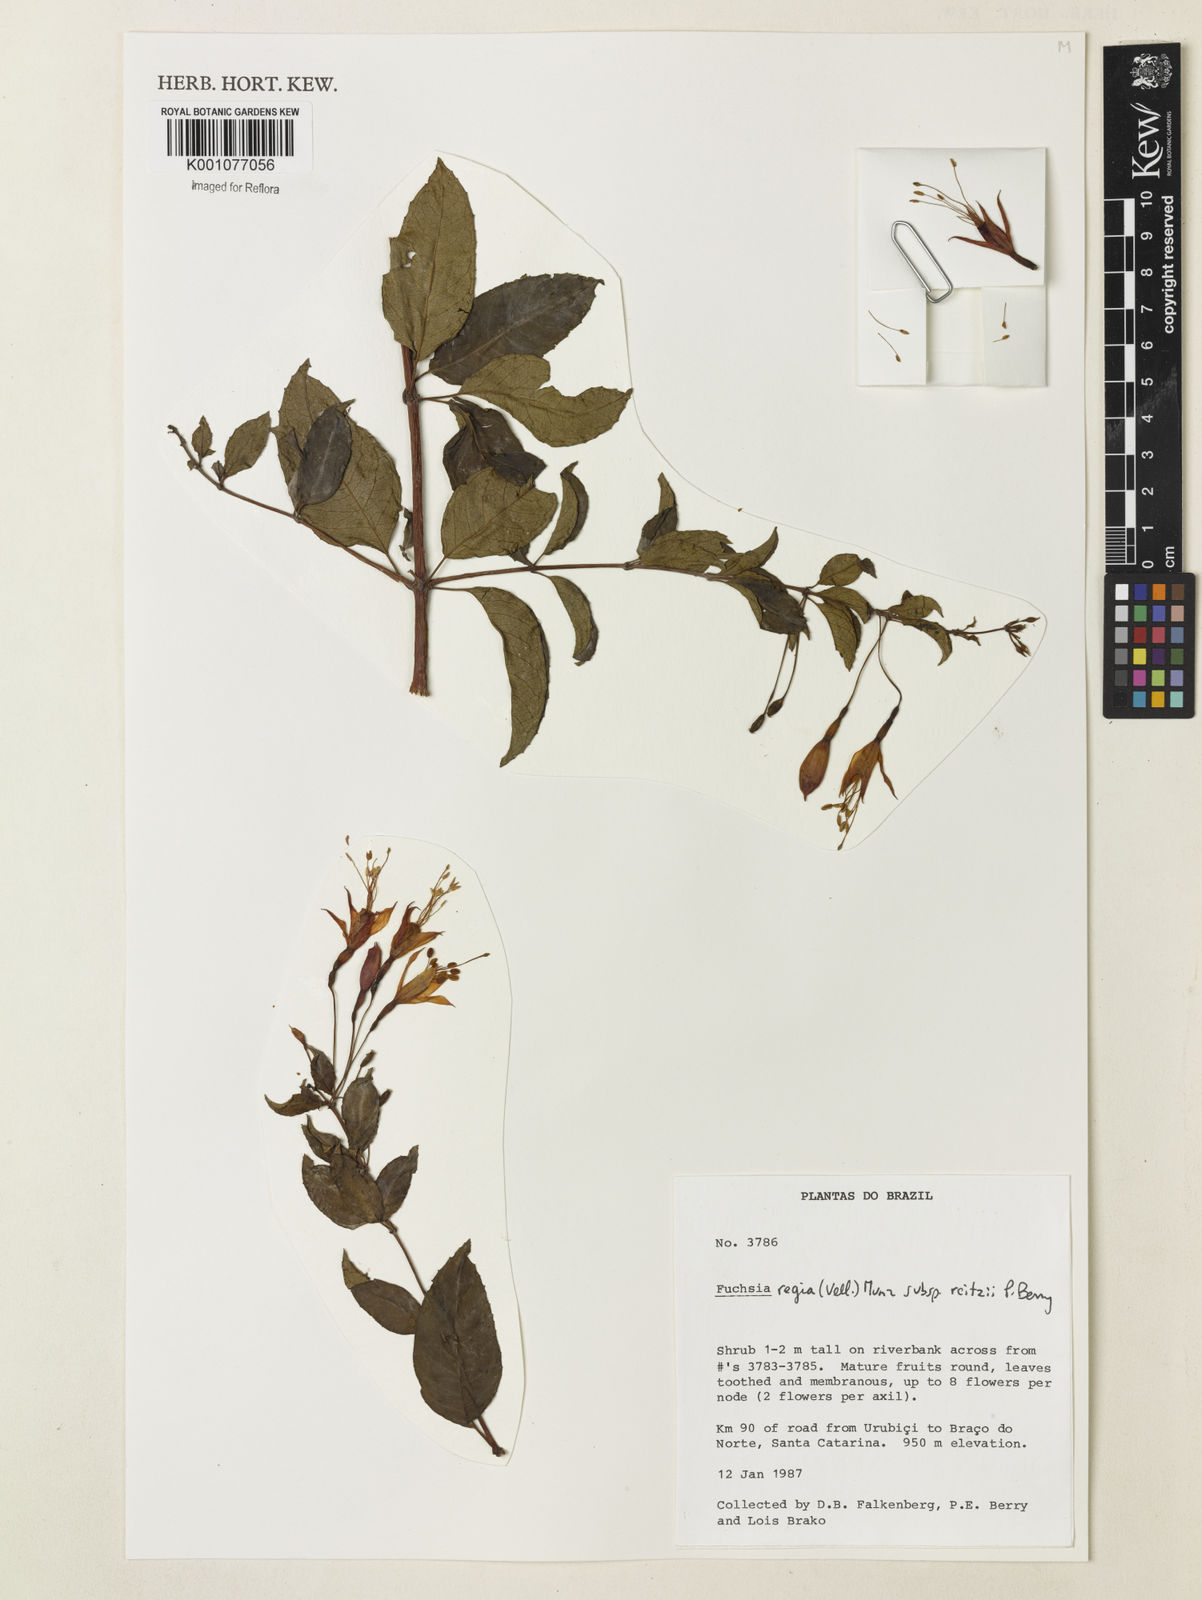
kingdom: Plantae
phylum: Tracheophyta
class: Magnoliopsida
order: Myrtales
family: Onagraceae
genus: Fuchsia
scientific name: Fuchsia regia
